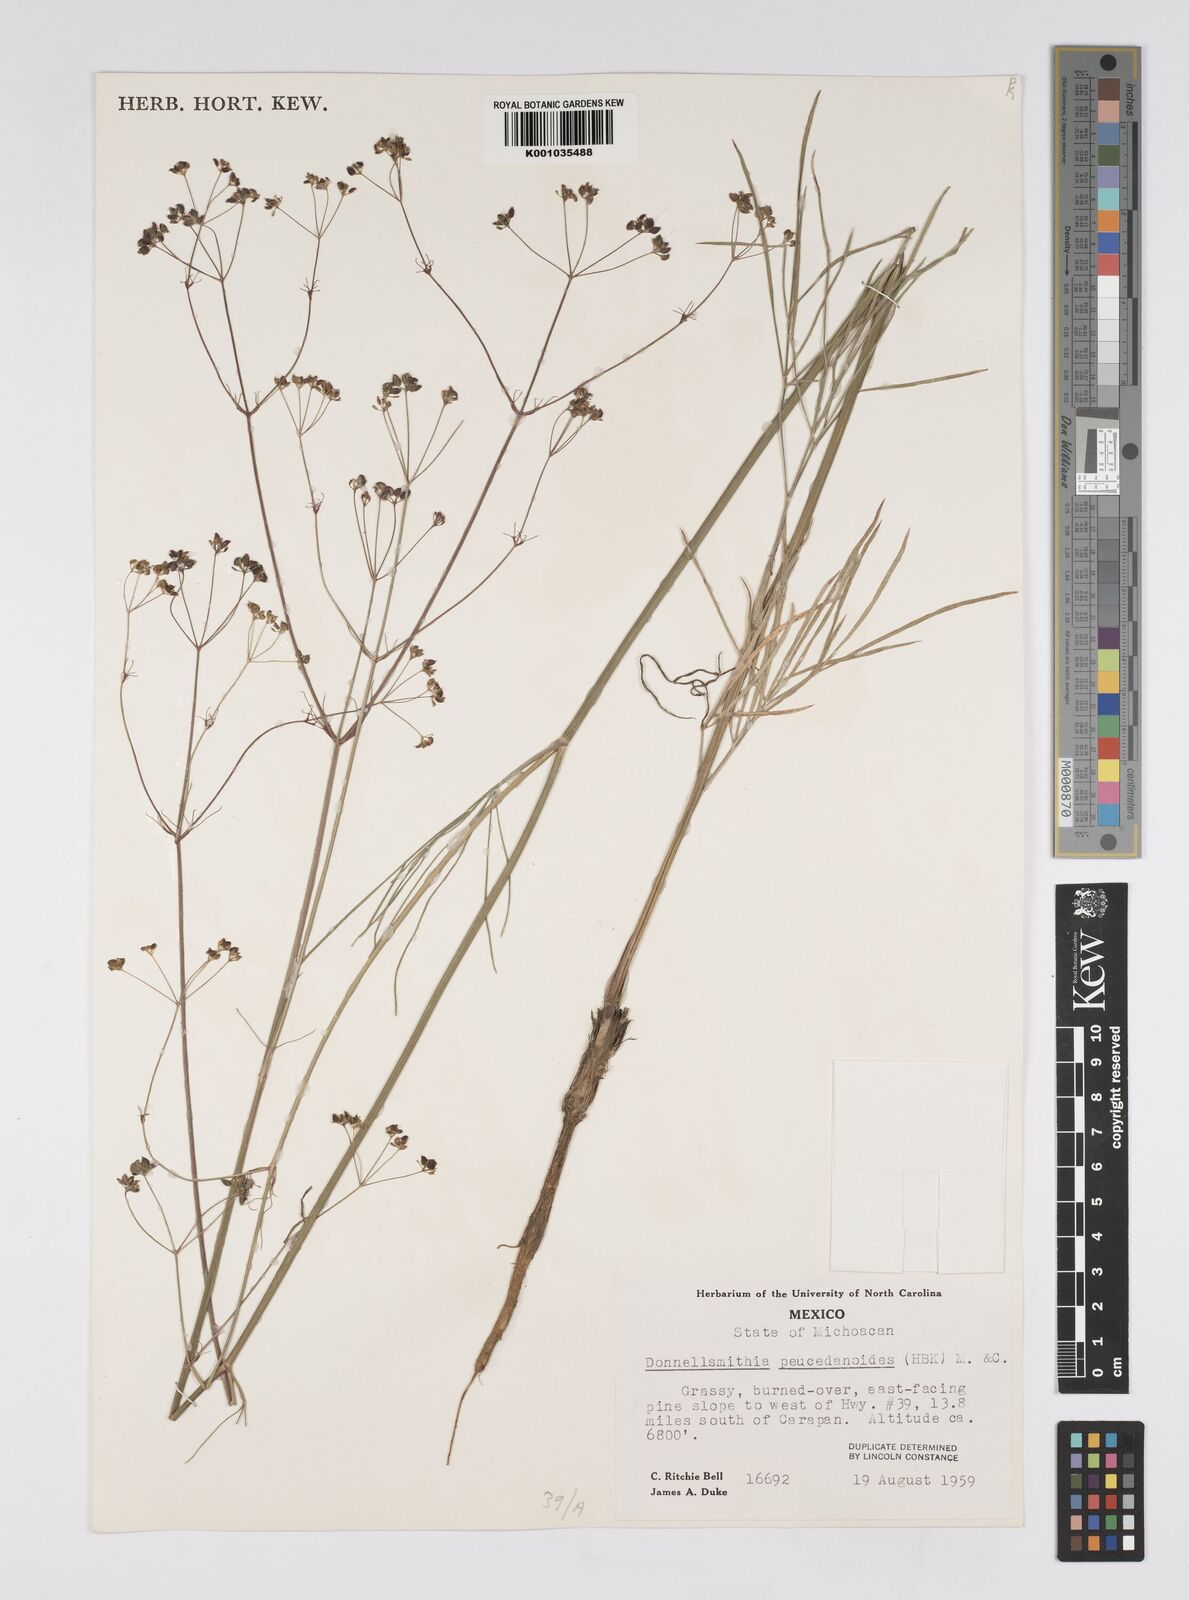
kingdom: Plantae
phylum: Tracheophyta
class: Magnoliopsida
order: Apiales
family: Apiaceae
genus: Donnellsmithia
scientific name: Donnellsmithia juncea
